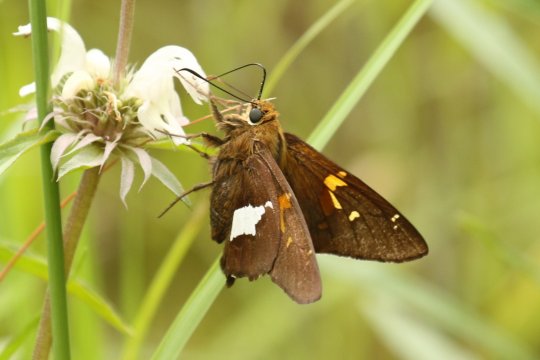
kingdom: Animalia
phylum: Arthropoda
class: Insecta
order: Lepidoptera
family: Hesperiidae
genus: Epargyreus
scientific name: Epargyreus clarus
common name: Silver-spotted Skipper
